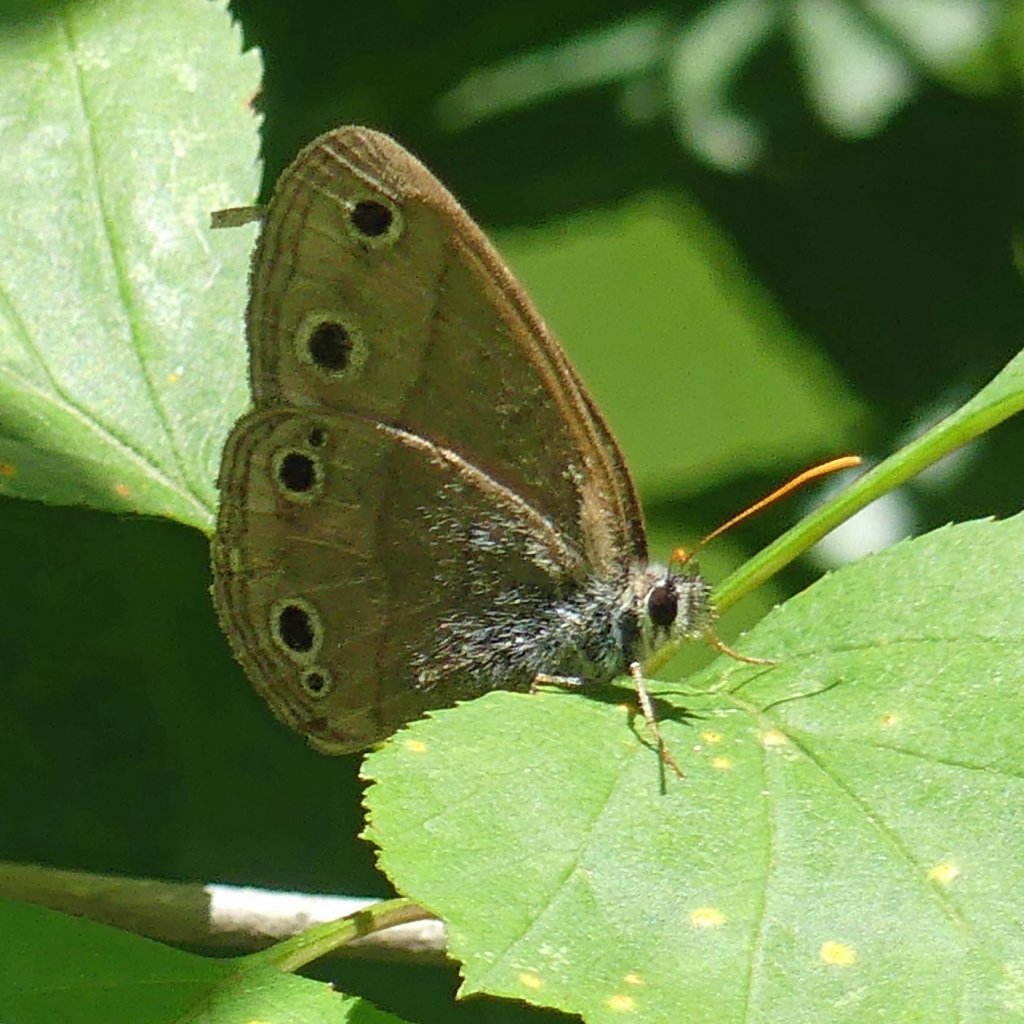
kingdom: Animalia
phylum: Arthropoda
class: Insecta
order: Lepidoptera
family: Nymphalidae
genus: Euptychia
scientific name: Euptychia cymela
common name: Little Wood Satyr
